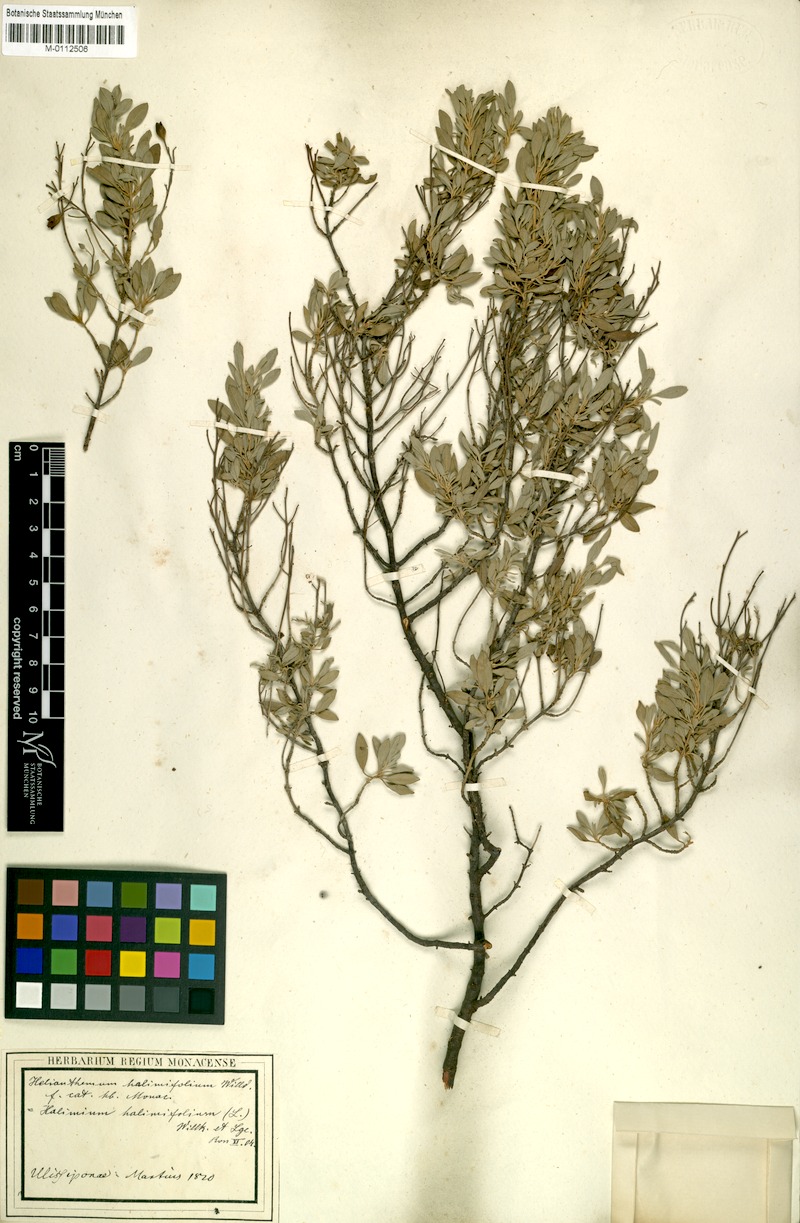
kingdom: Plantae
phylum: Tracheophyta
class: Magnoliopsida
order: Malvales
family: Cistaceae
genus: Halimium
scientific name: Halimium halimifolium
